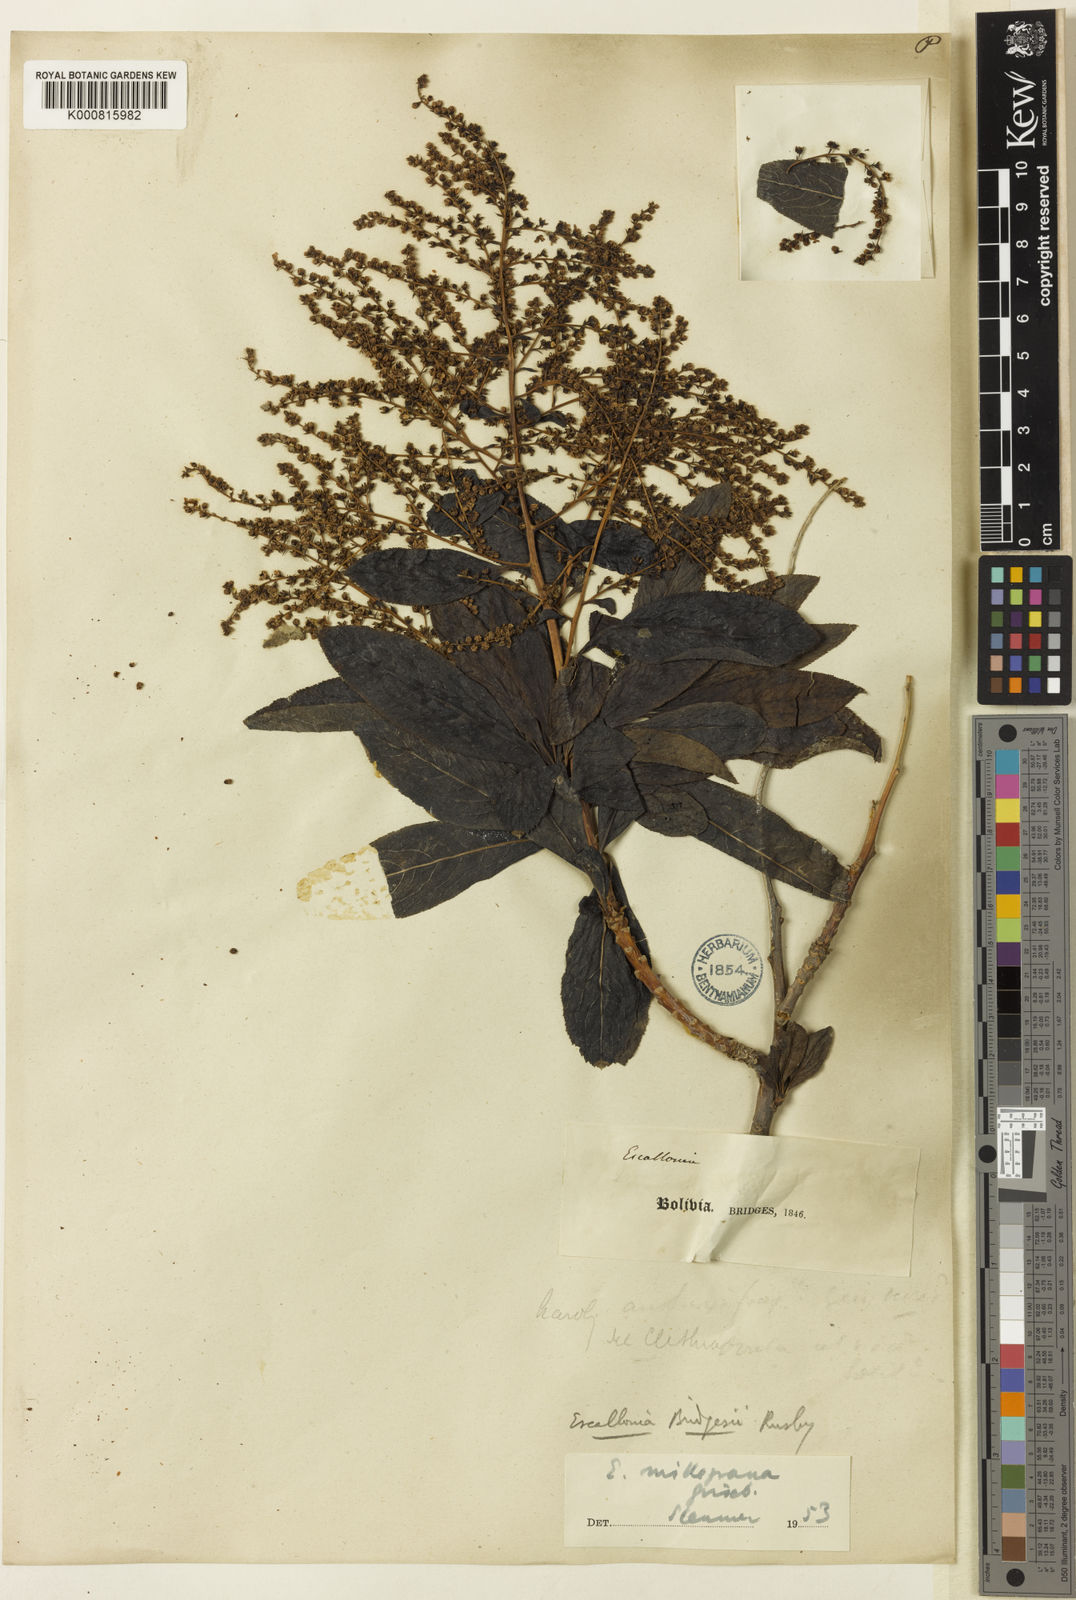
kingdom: Plantae
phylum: Tracheophyta
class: Magnoliopsida
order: Escalloniales
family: Escalloniaceae
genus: Escallonia
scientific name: Escallonia millegrana
